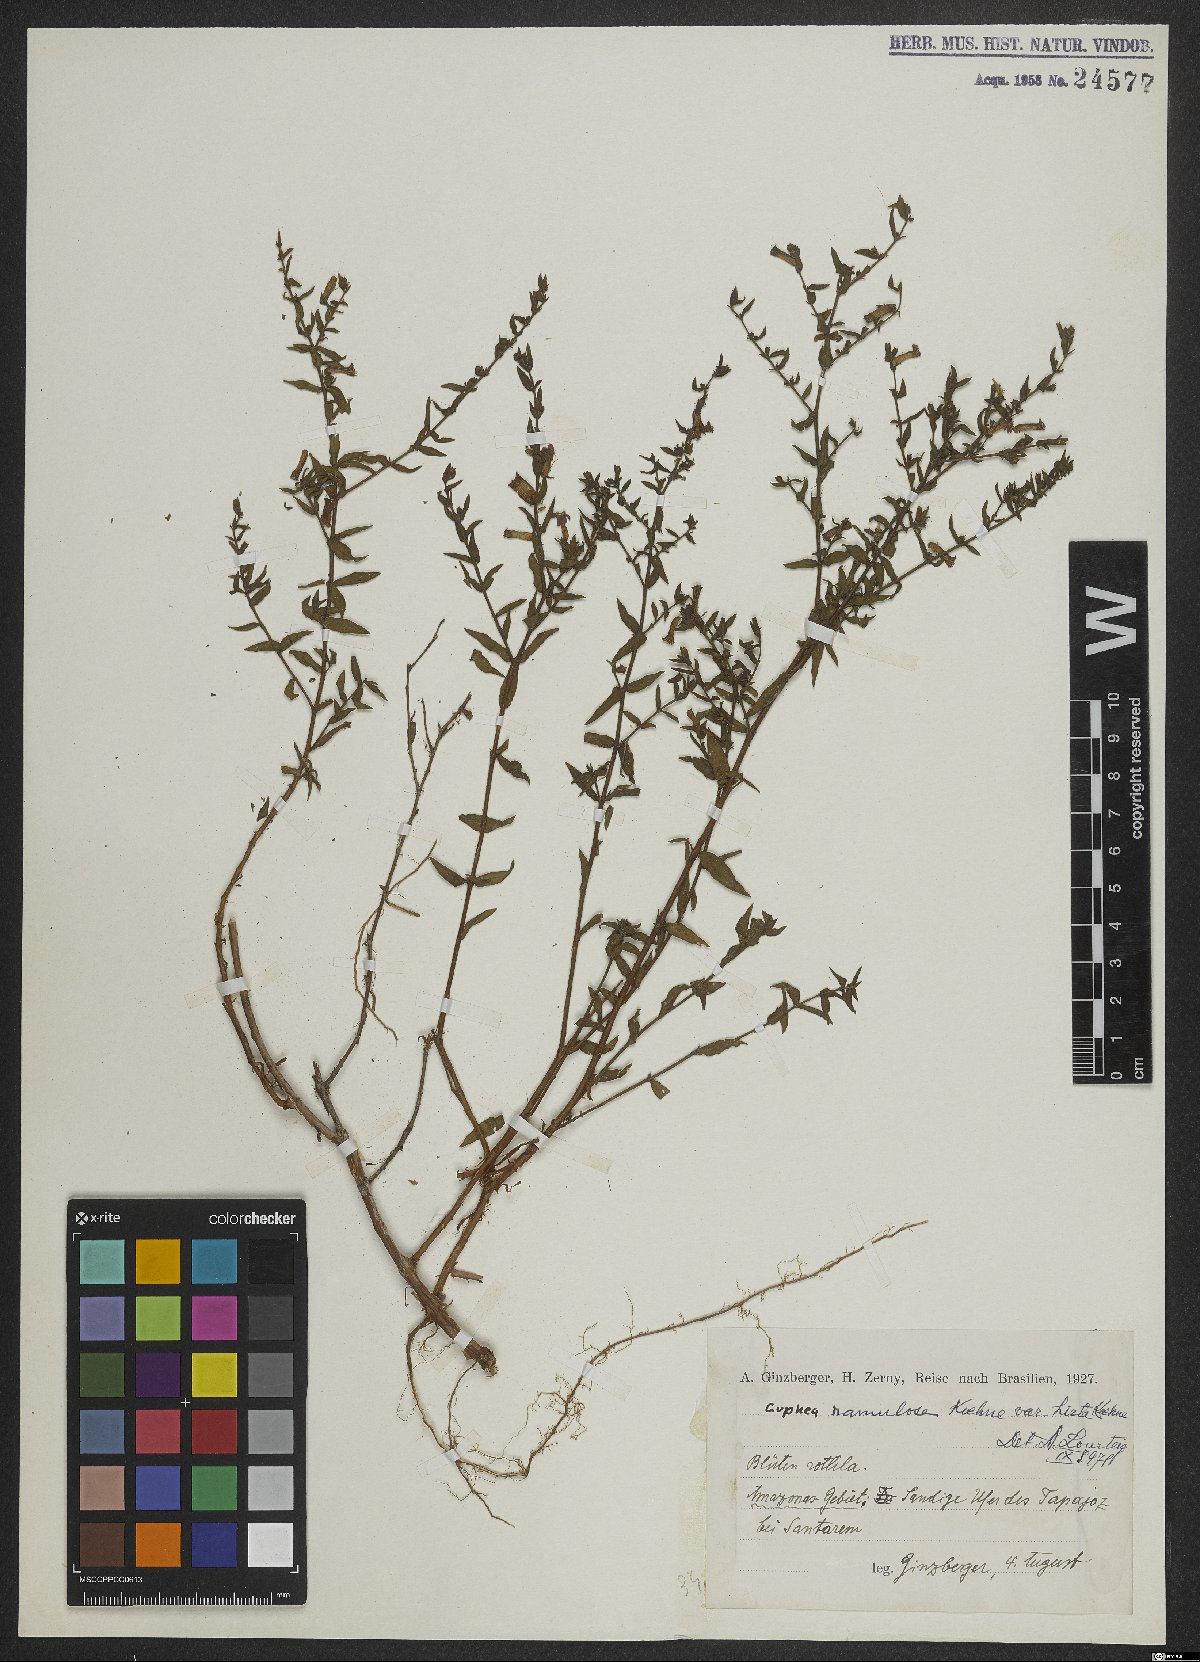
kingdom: Plantae
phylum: Tracheophyta
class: Magnoliopsida
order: Myrtales
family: Lythraceae
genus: Cuphea
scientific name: Cuphea antisyphilitica
